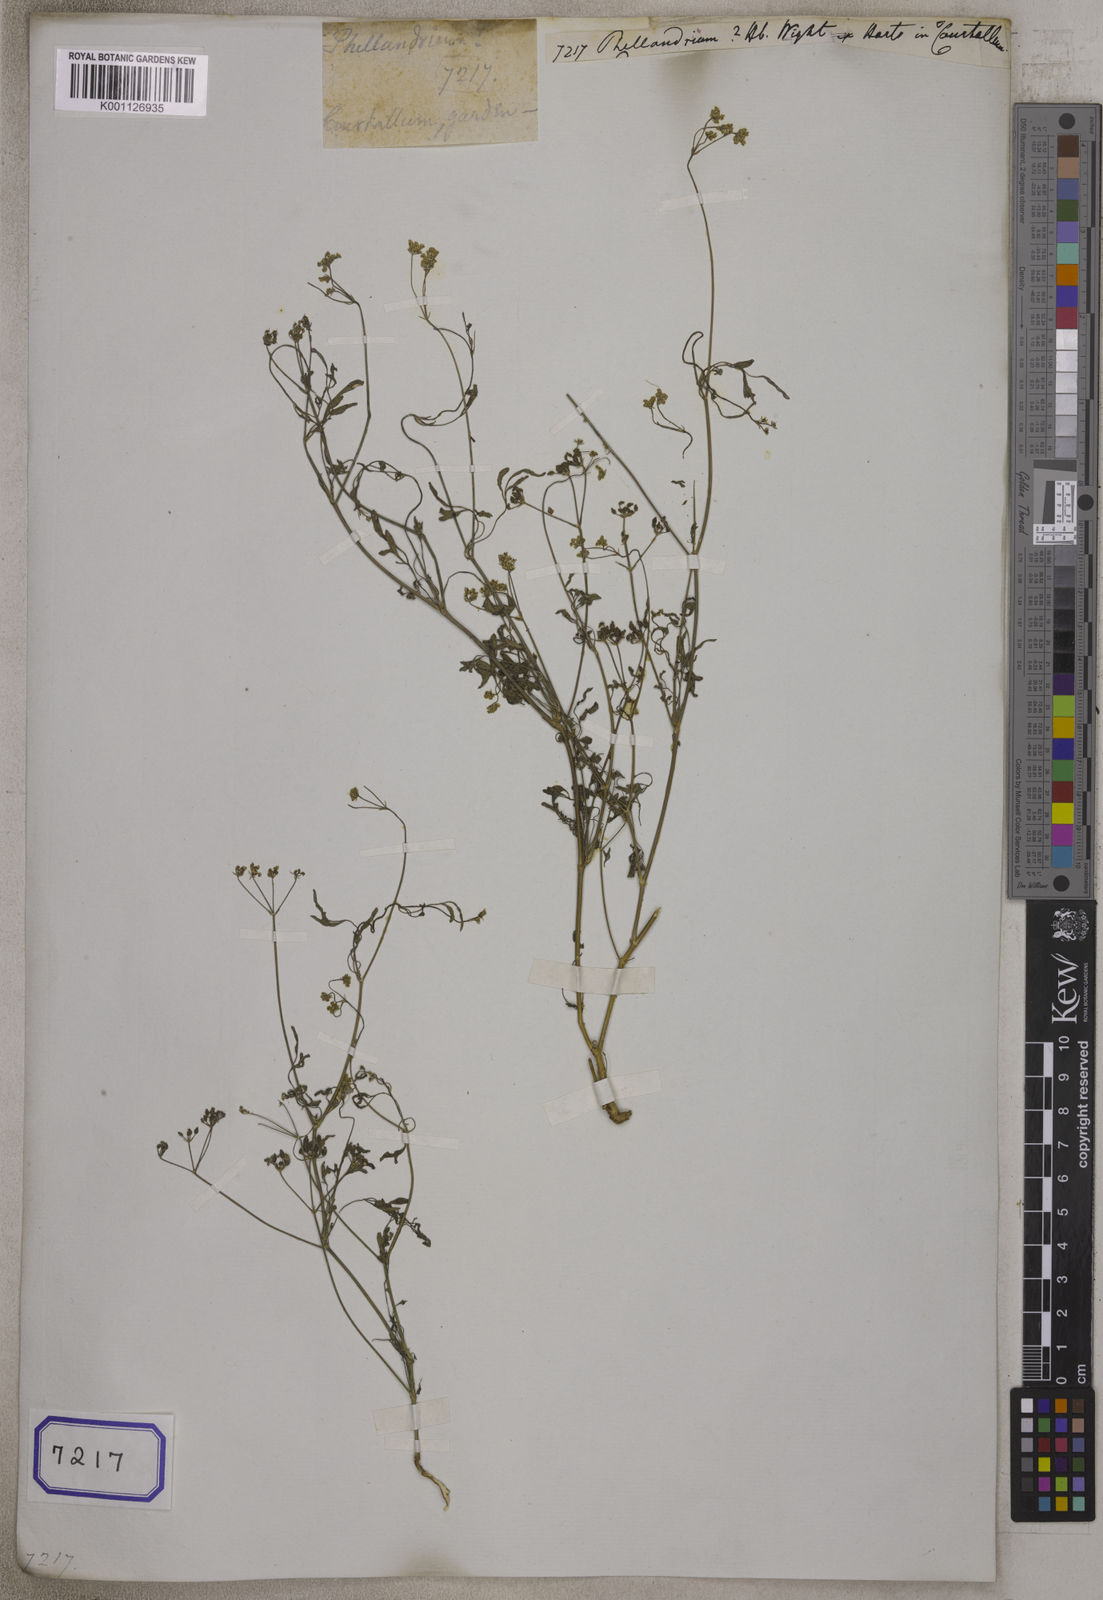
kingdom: Plantae
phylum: Tracheophyta
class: Magnoliopsida
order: Apiales
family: Apiaceae
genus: Oenanthe
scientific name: Oenanthe
